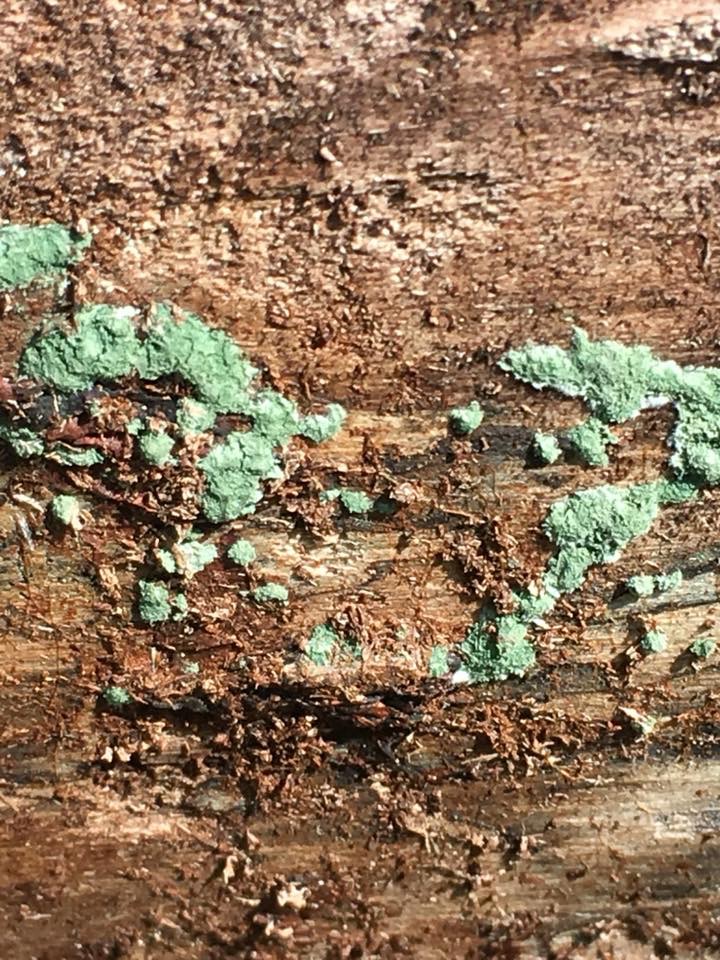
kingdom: Fungi
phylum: Ascomycota
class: Sordariomycetes
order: Hypocreales
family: Hypocreaceae
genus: Trichoderma
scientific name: Trichoderma
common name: kødkerne
